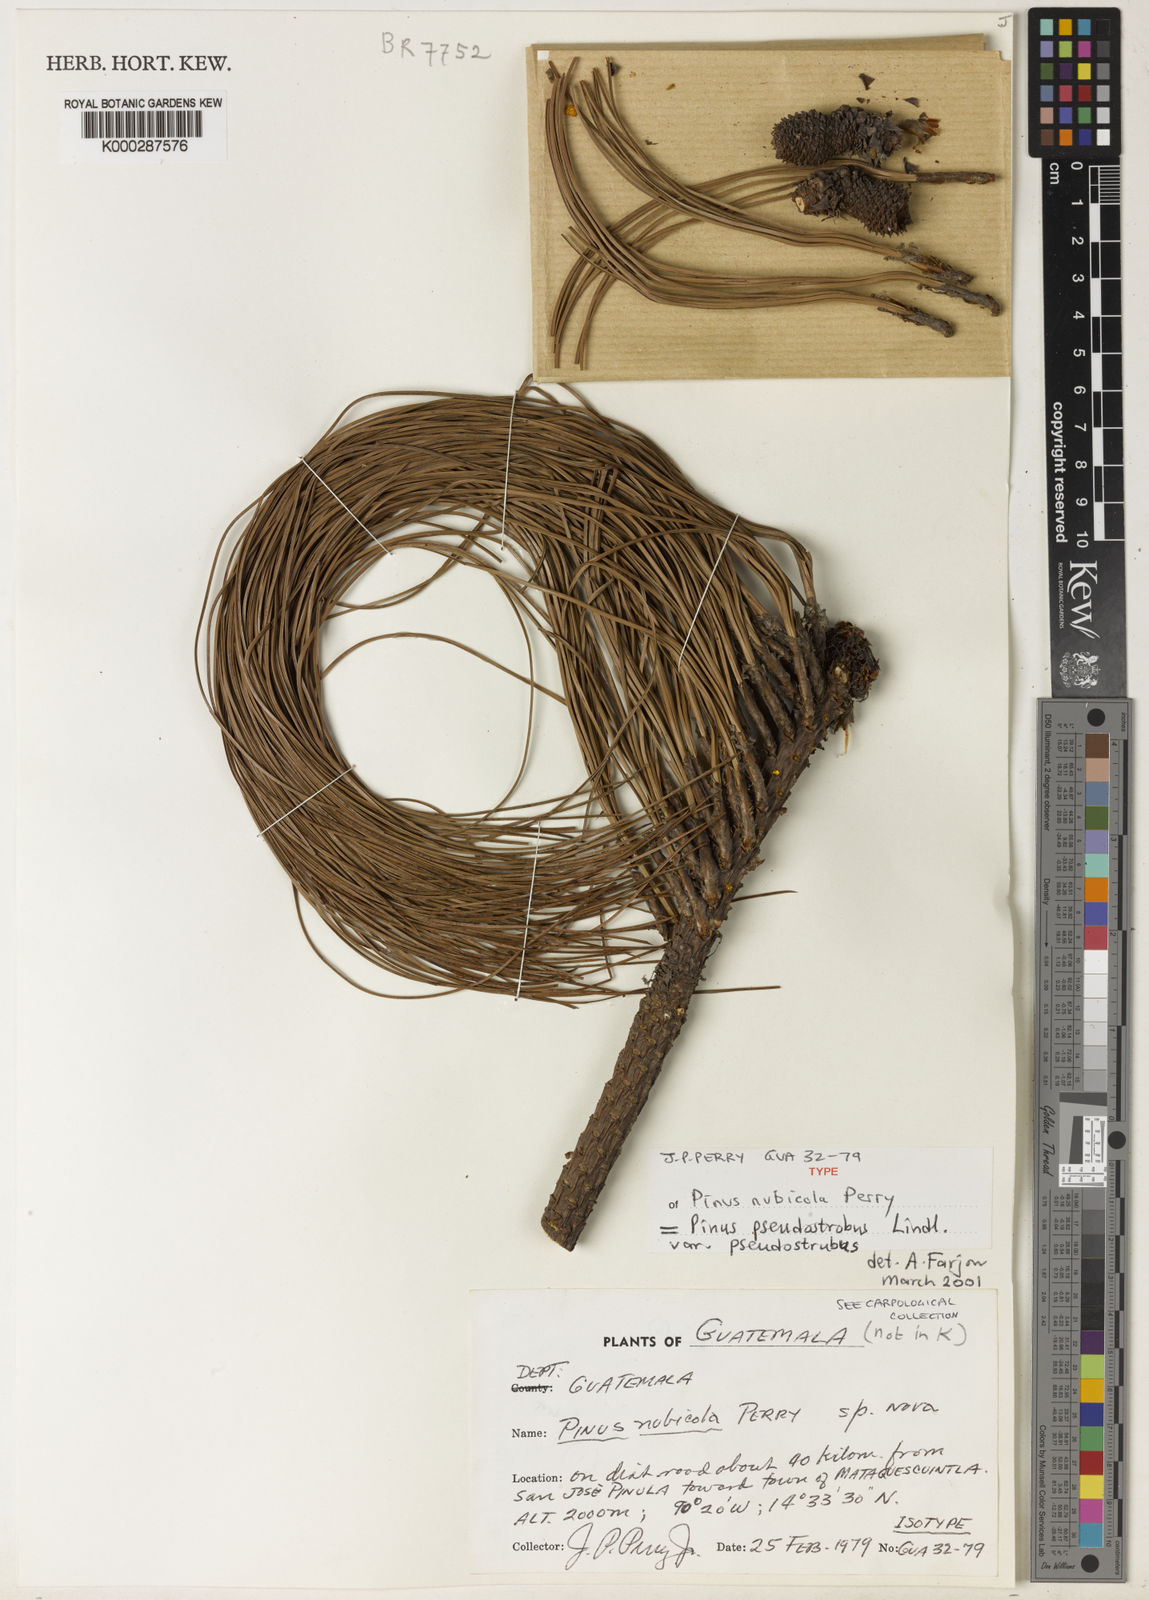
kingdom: Plantae
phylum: Tracheophyta
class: Pinopsida
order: Pinales
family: Pinaceae
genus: Pinus
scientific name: Pinus pseudostrobus
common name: False weymouth pine
